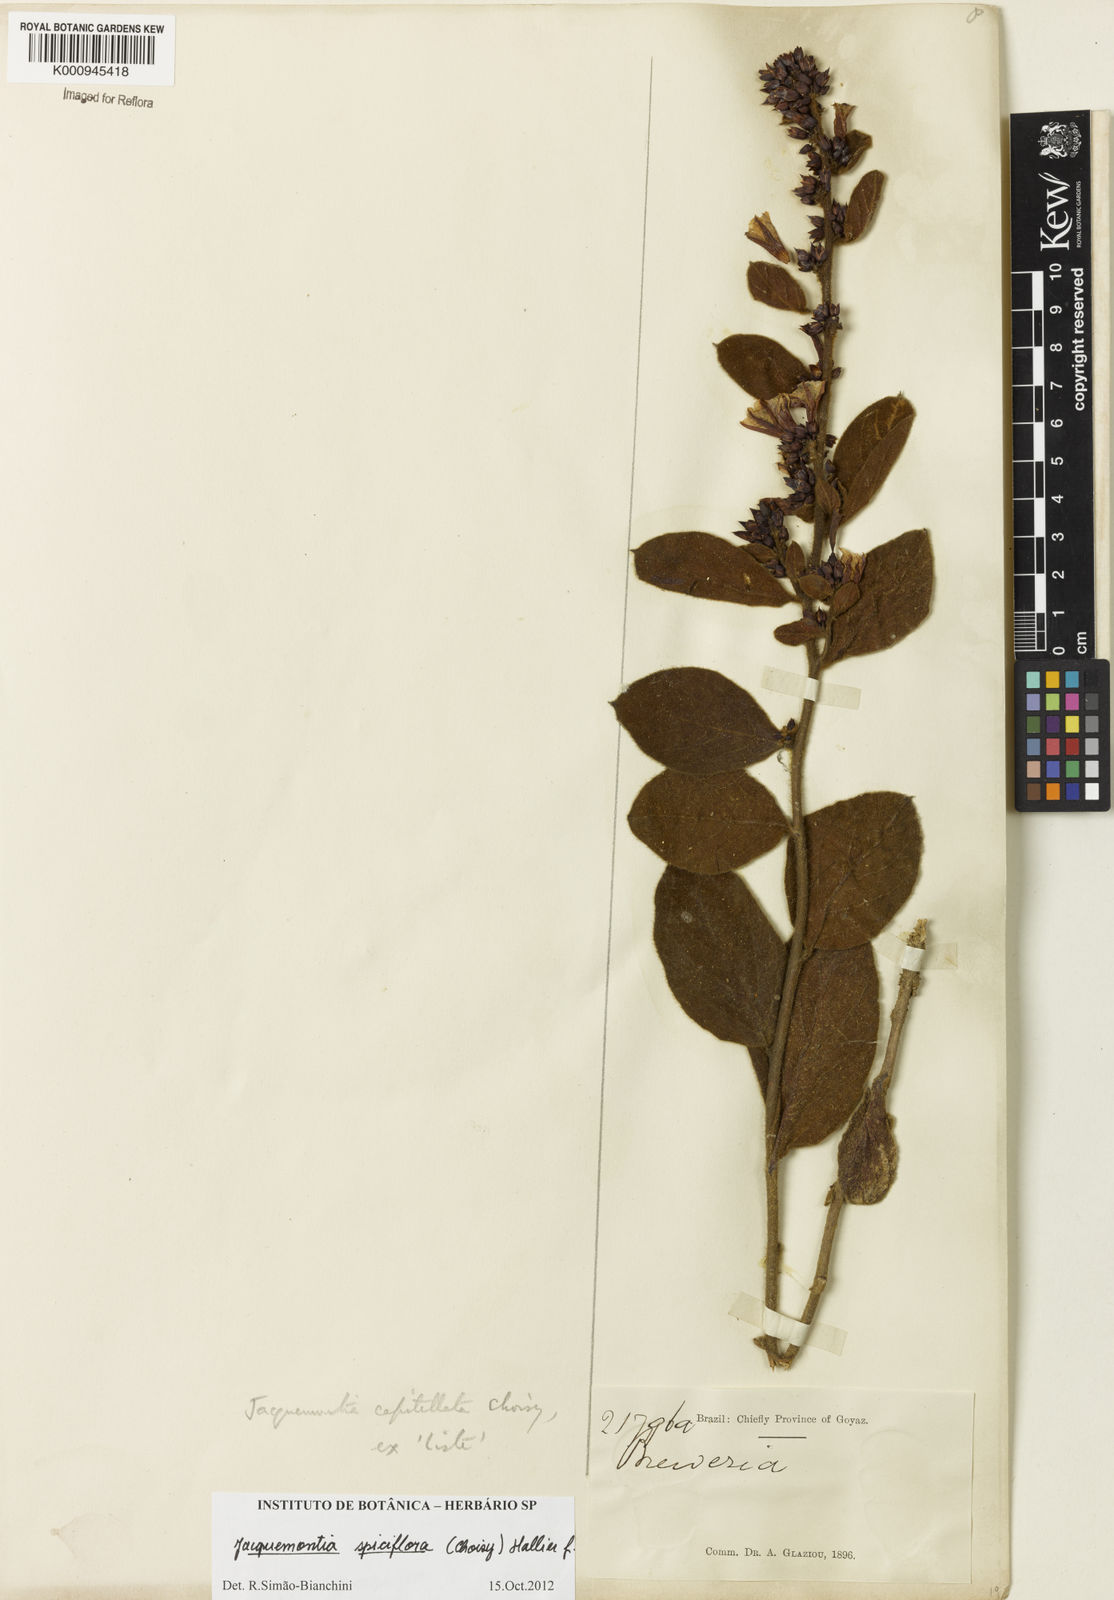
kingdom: Plantae
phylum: Tracheophyta
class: Magnoliopsida
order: Solanales
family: Convolvulaceae
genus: Jacquemontia
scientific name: Jacquemontia spiciflora
